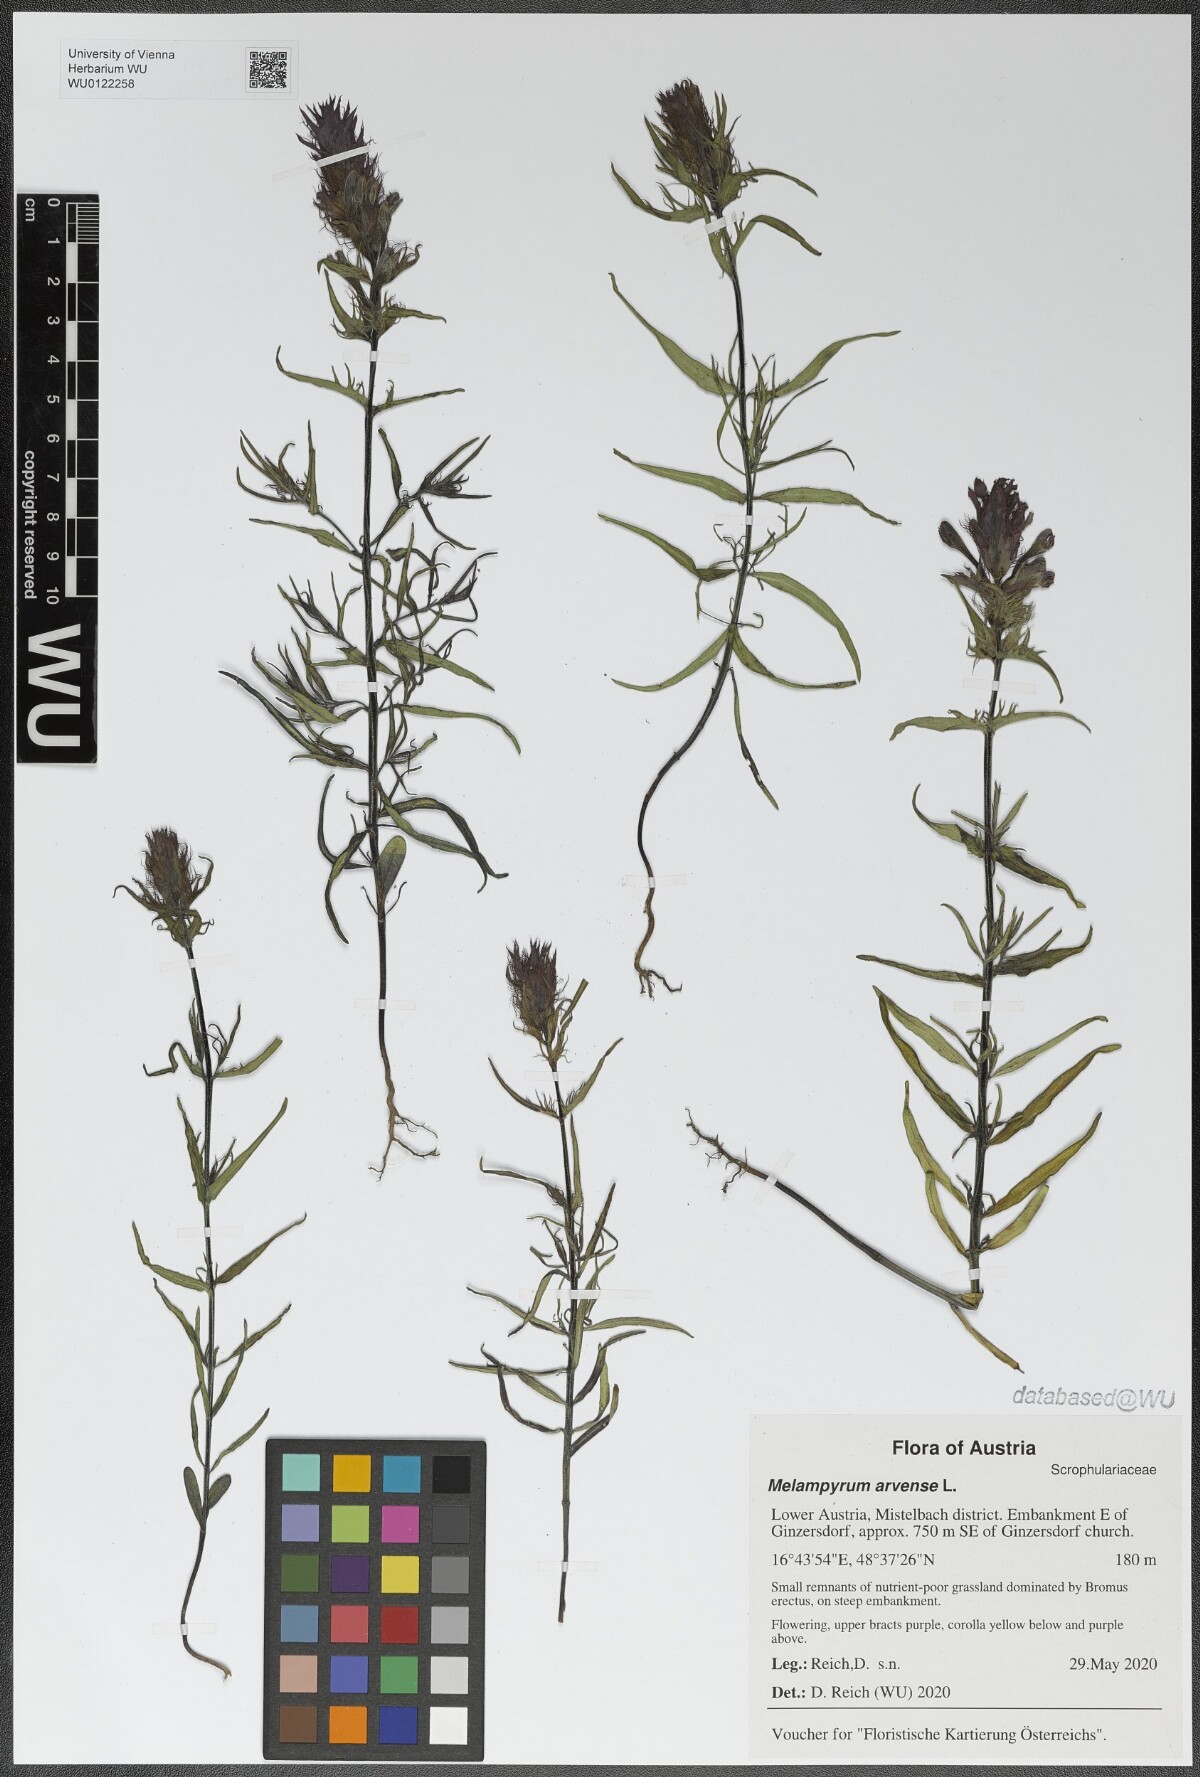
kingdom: Plantae
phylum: Tracheophyta
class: Magnoliopsida
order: Lamiales
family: Orobanchaceae
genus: Melampyrum
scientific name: Melampyrum arvense
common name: Field cow-wheat
